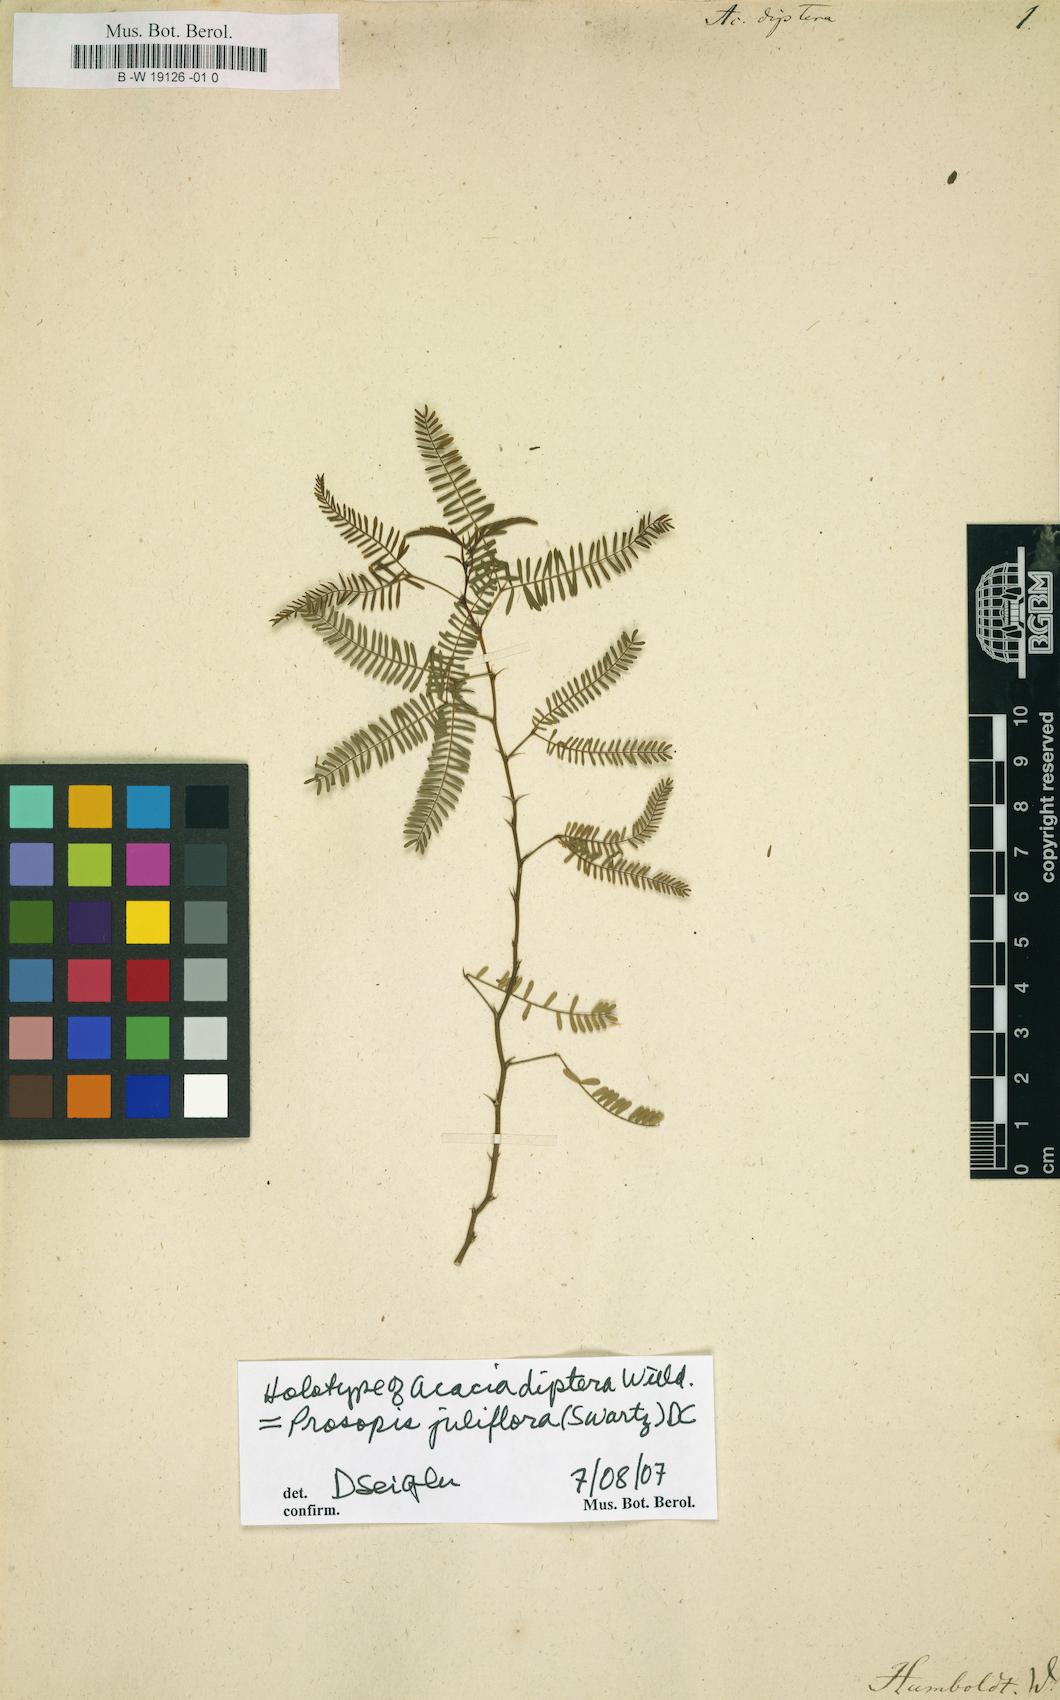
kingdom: Plantae
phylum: Tracheophyta
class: Magnoliopsida
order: Fabales
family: Fabaceae
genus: Prosopis
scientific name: Prosopis juliflora
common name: Mesquite
